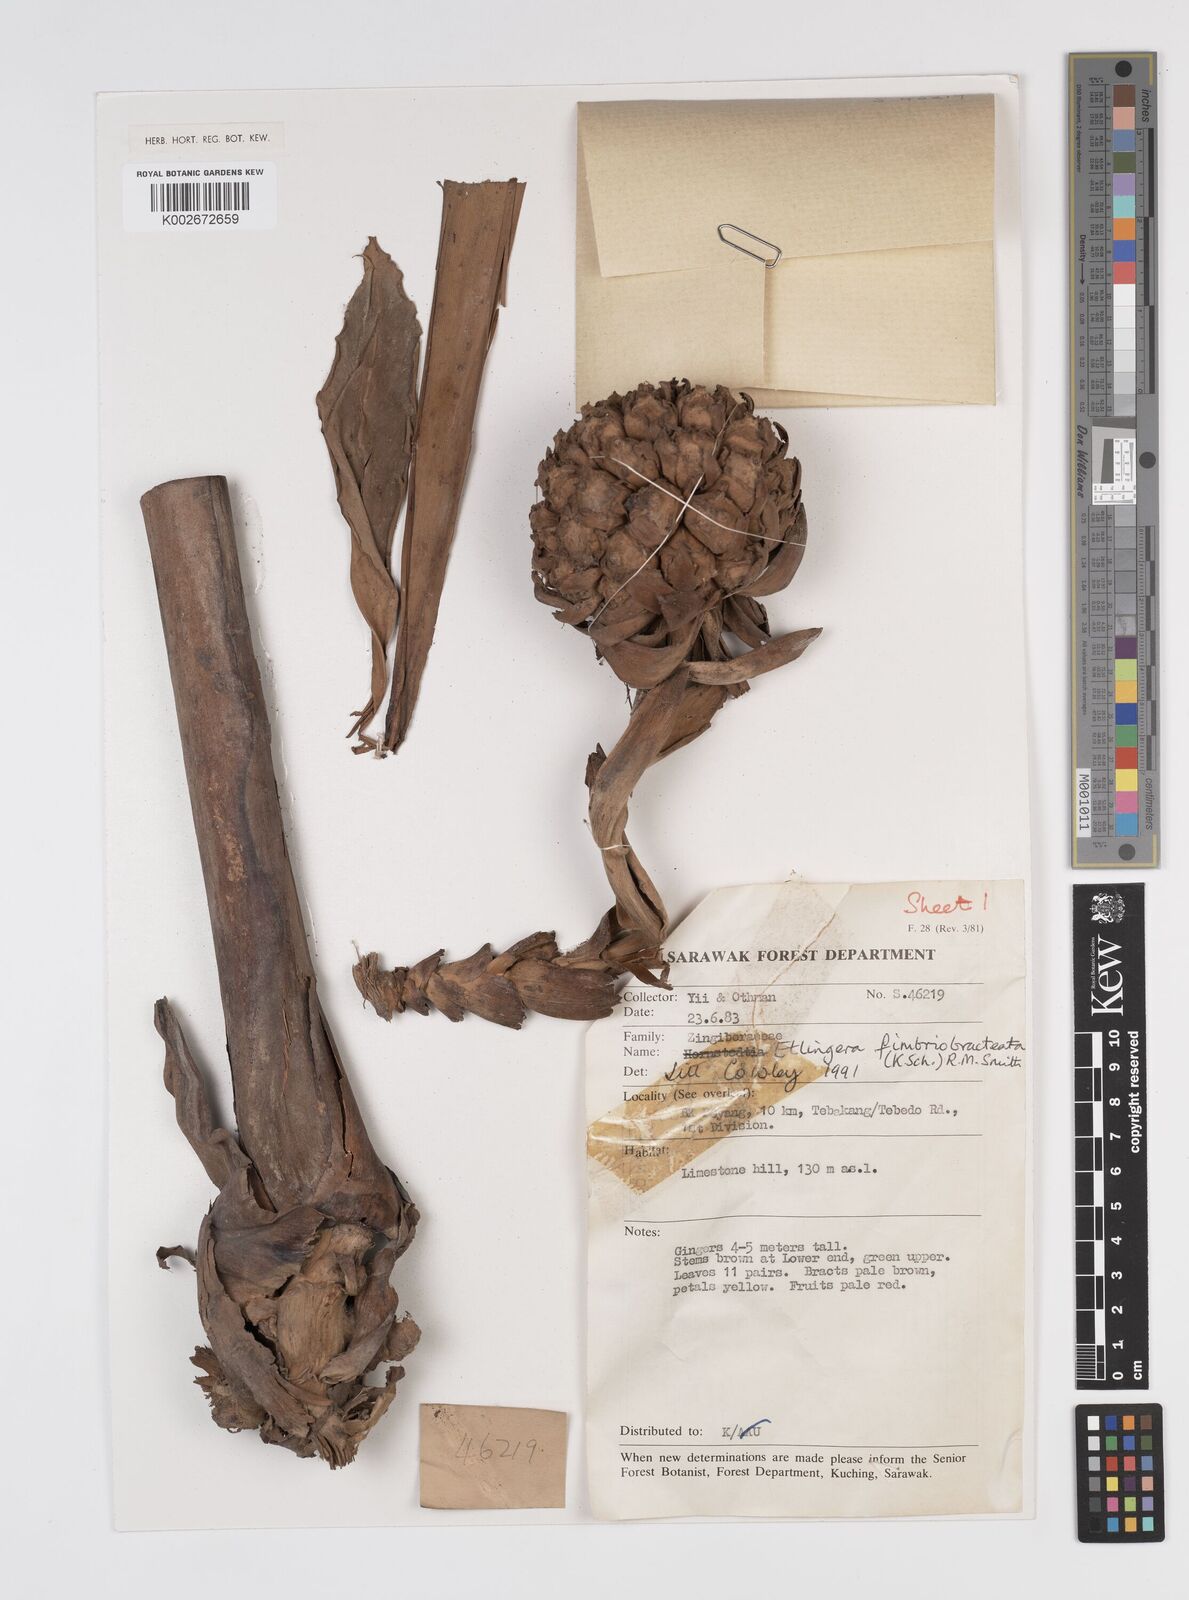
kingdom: Plantae
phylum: Tracheophyta
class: Liliopsida
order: Zingiberales
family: Zingiberaceae
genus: Etlingera
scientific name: Etlingera fimbriobracteata
